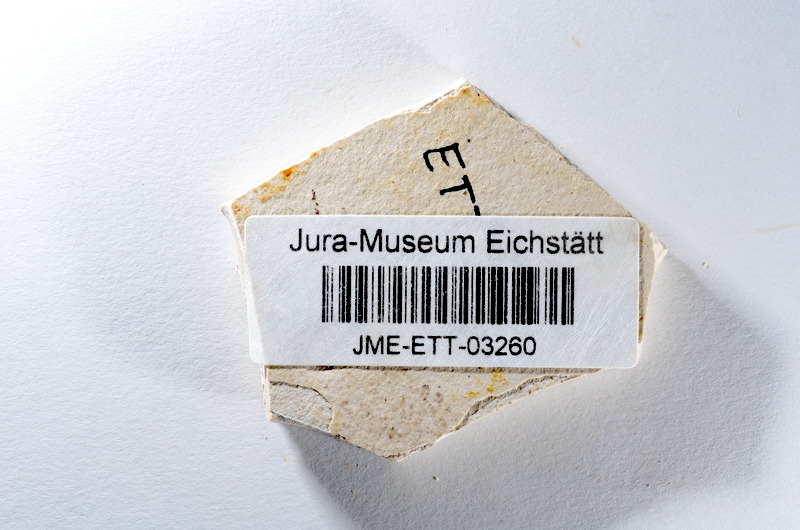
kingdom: Animalia
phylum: Chordata
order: Salmoniformes
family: Orthogonikleithridae
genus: Orthogonikleithrus
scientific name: Orthogonikleithrus hoelli
